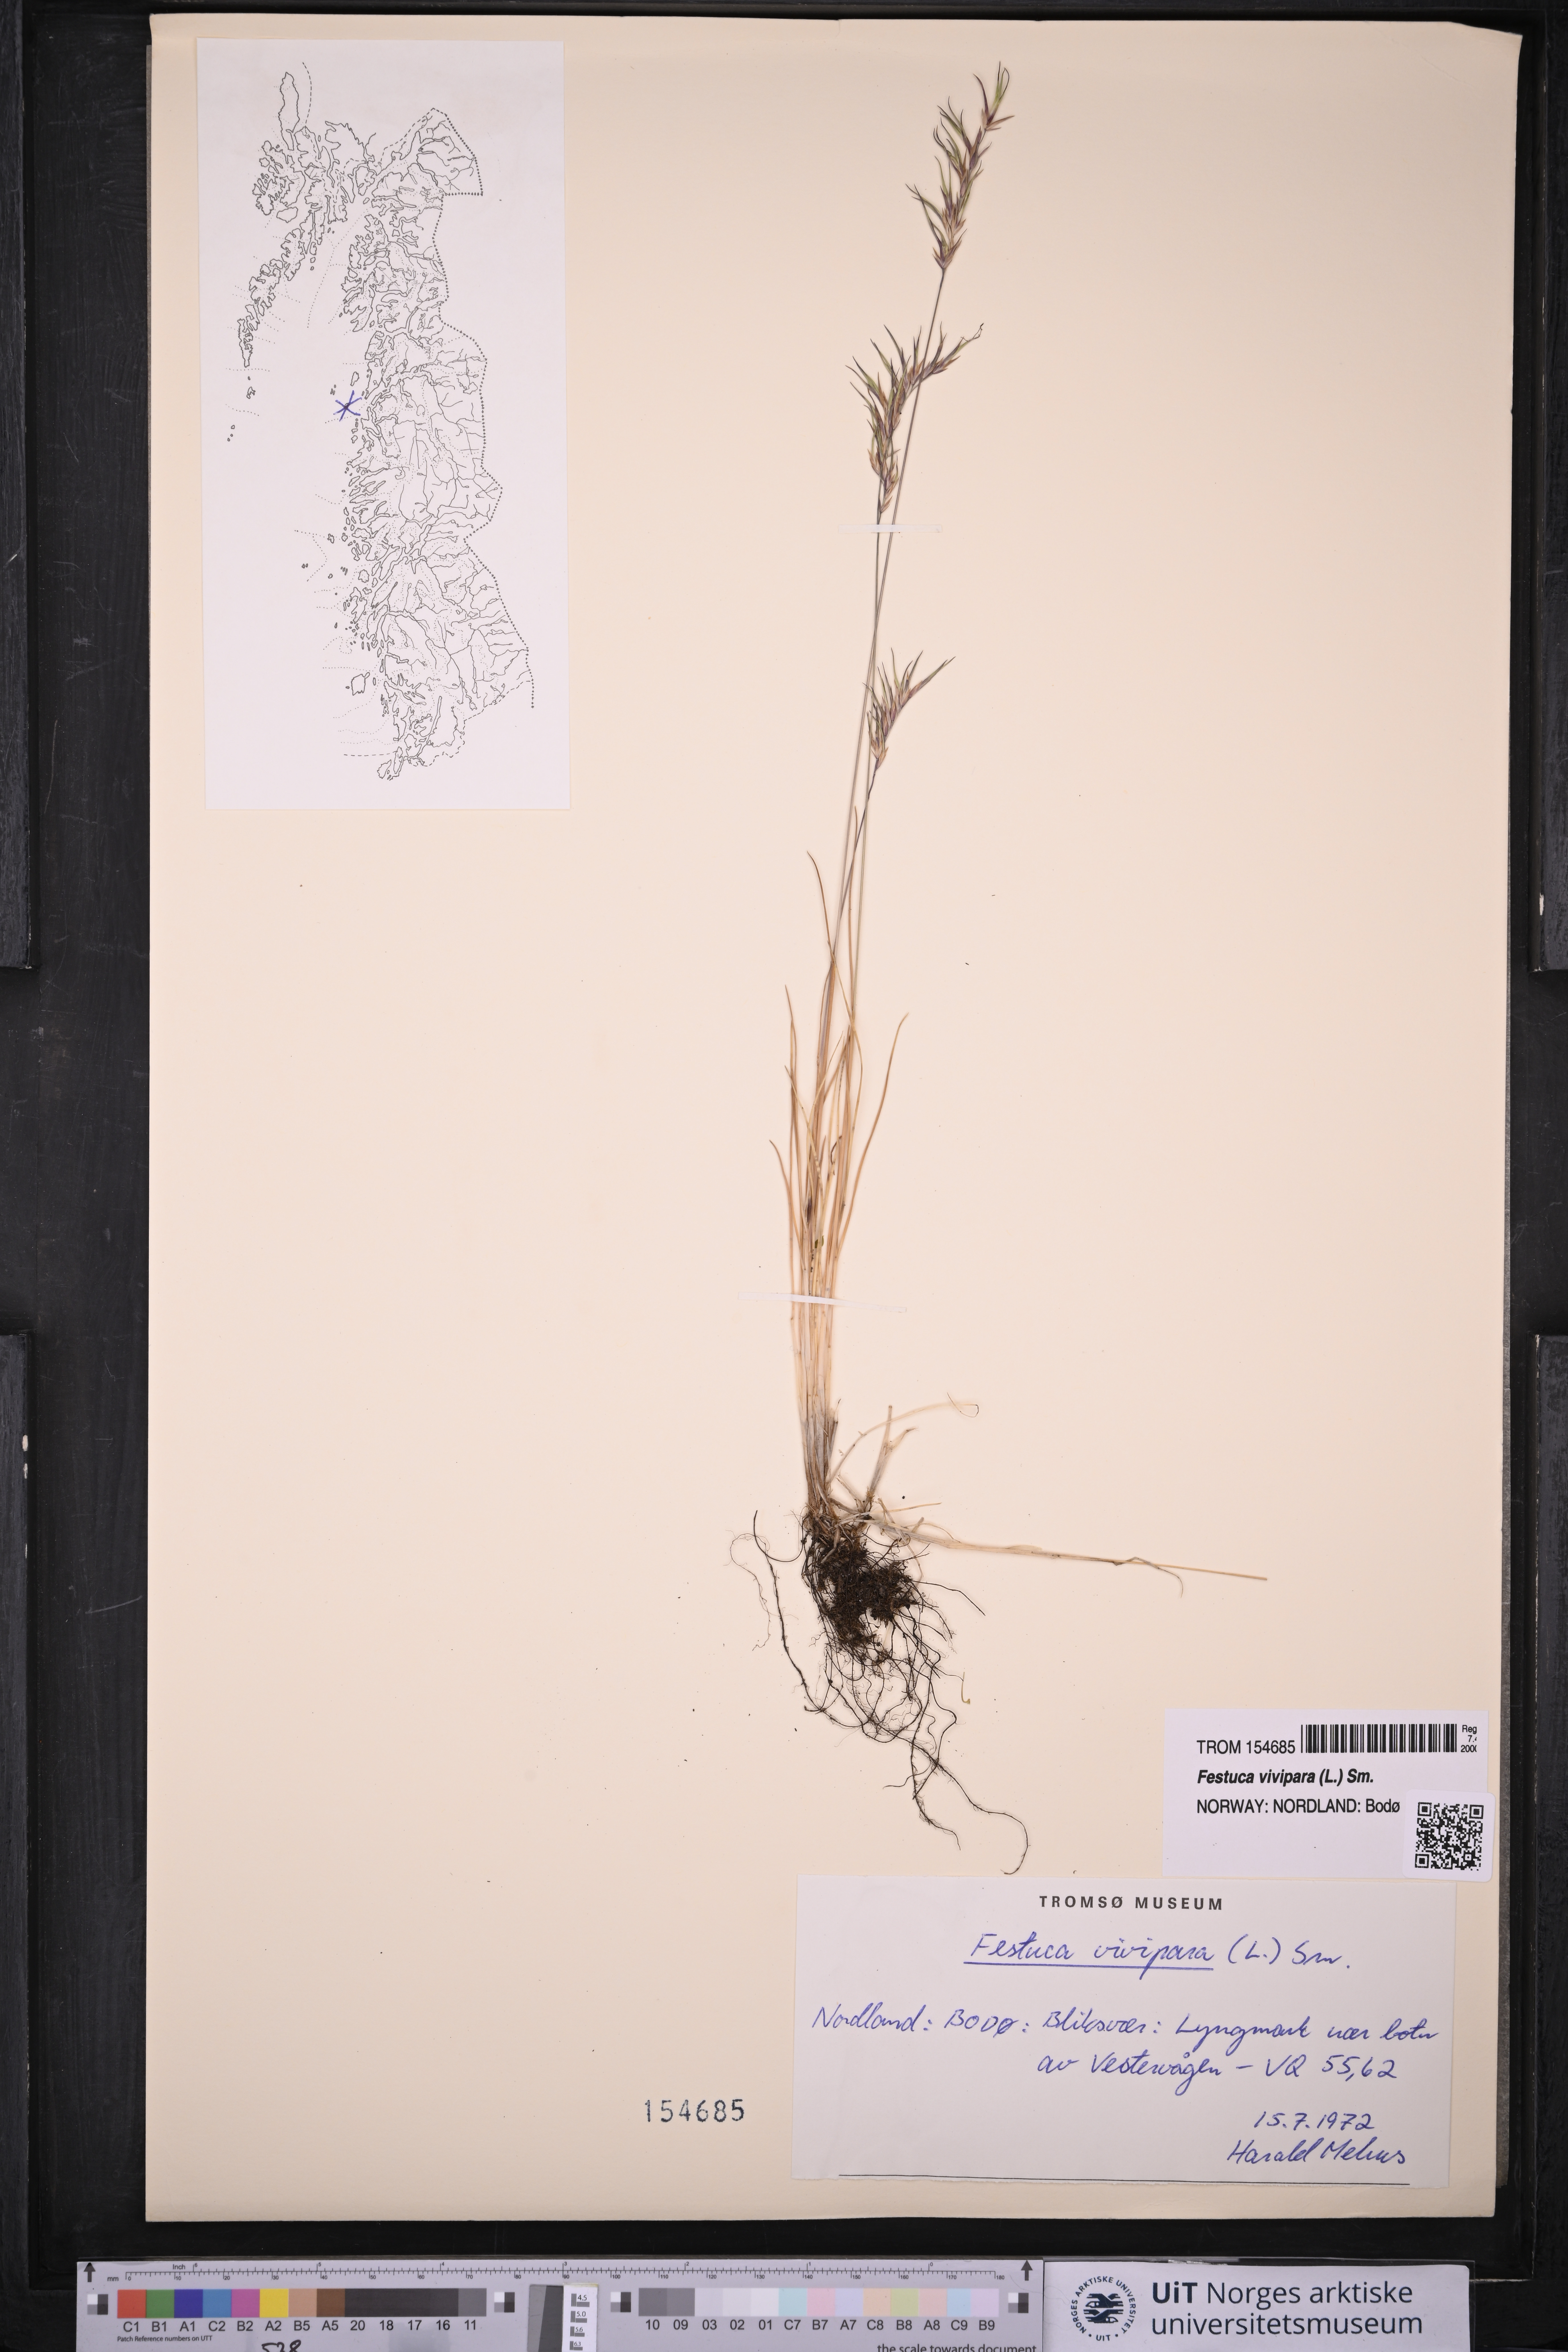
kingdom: Plantae
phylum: Tracheophyta
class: Liliopsida
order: Poales
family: Poaceae
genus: Festuca
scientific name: Festuca vivipara
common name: Viviparous sheep's-fescue
